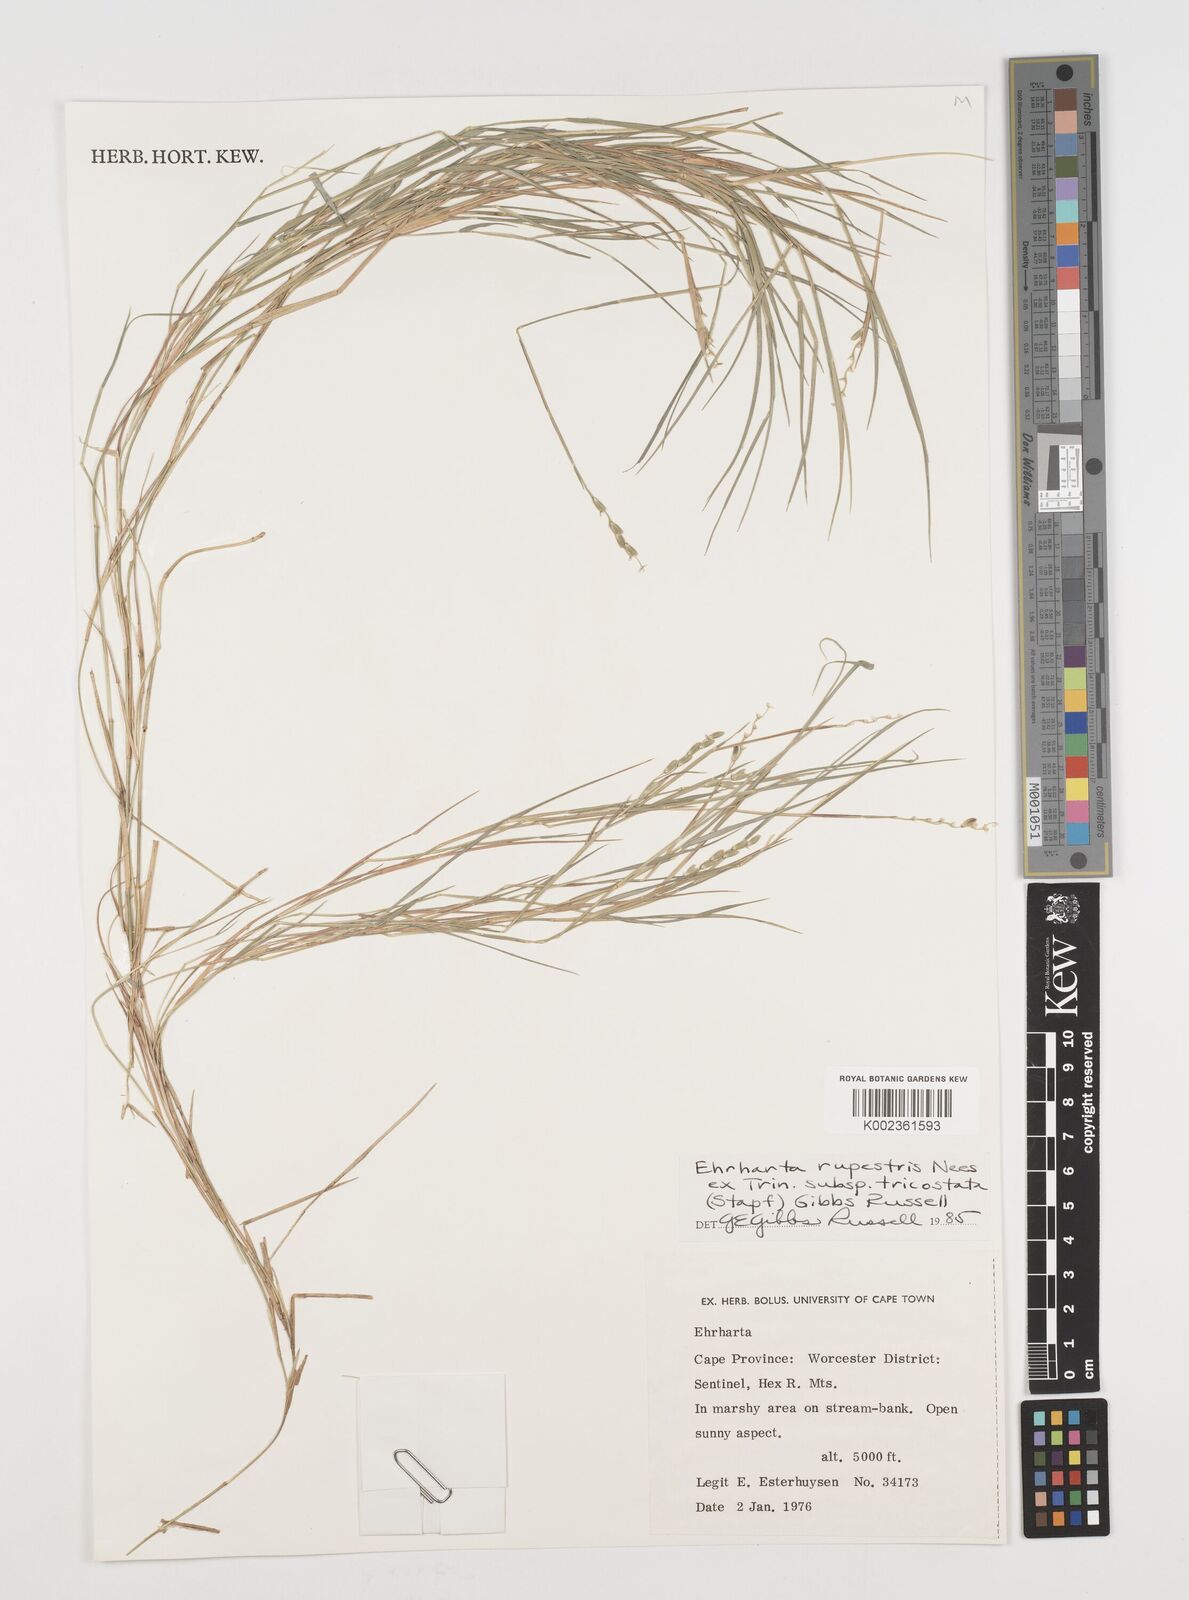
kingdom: Plantae
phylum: Tracheophyta
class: Liliopsida
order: Poales
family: Poaceae
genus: Ehrharta
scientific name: Ehrharta rupestris
